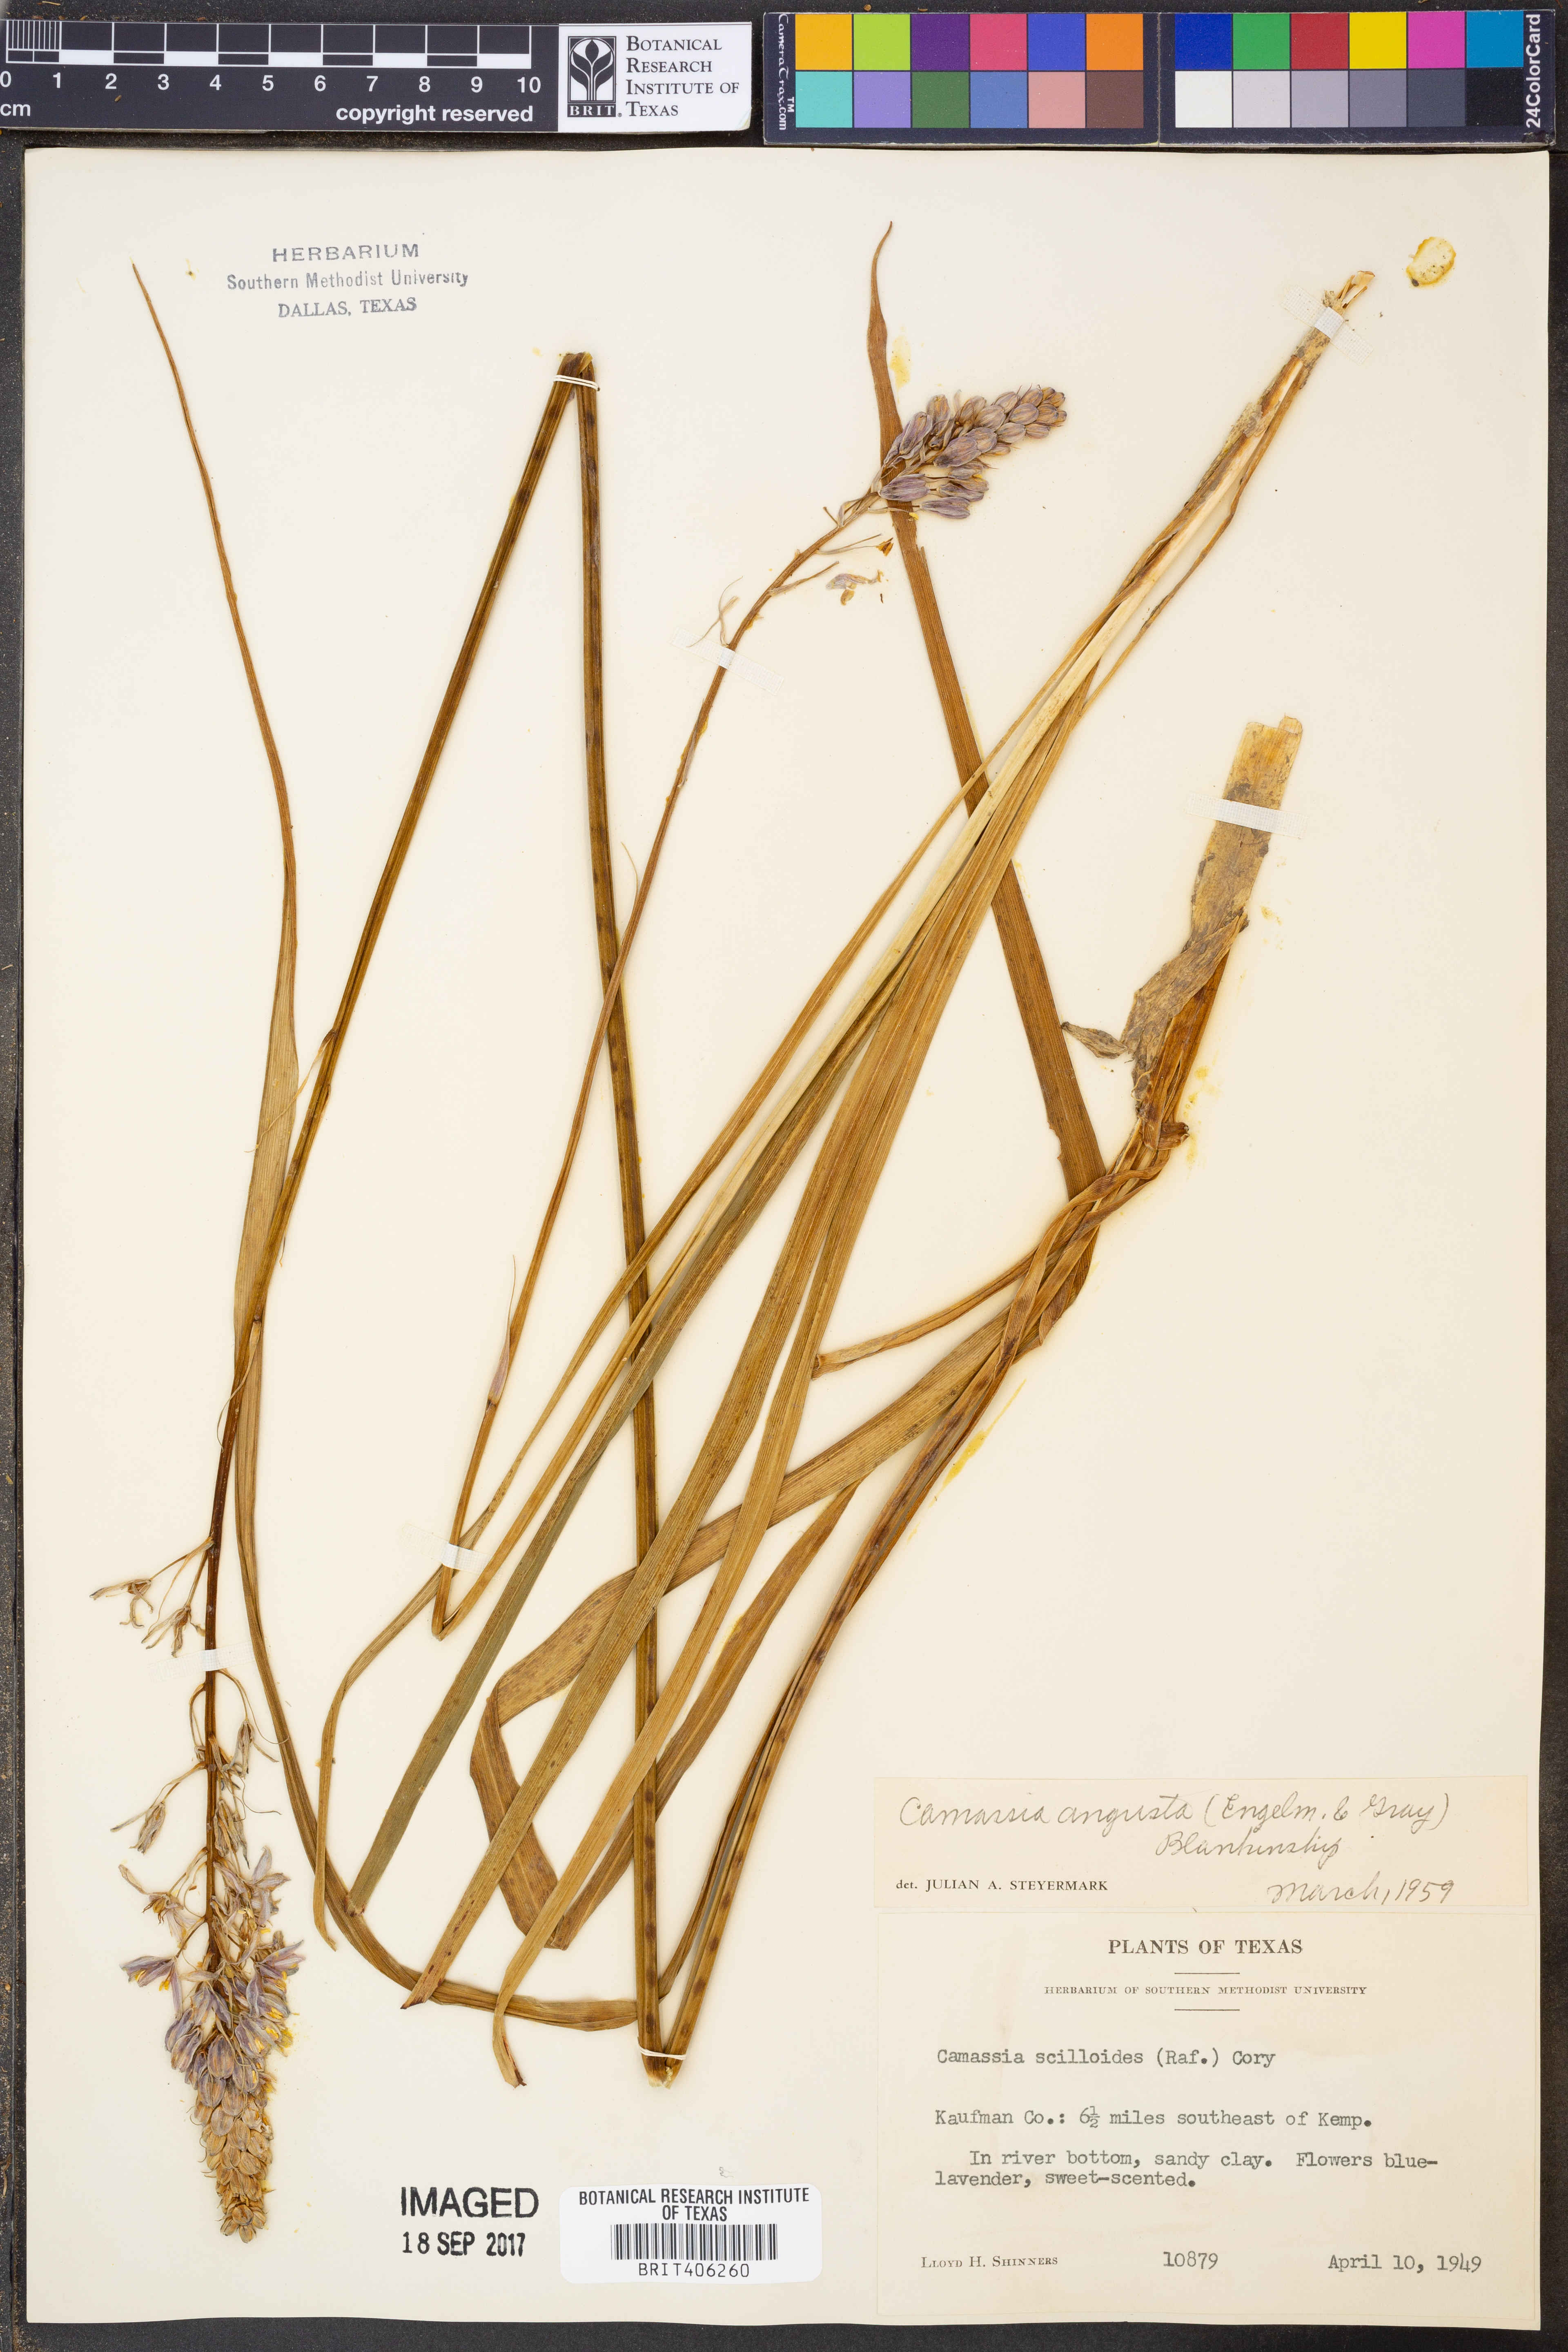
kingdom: Plantae
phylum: Tracheophyta
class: Liliopsida
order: Asparagales
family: Asparagaceae
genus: Camassia
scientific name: Camassia angusta
